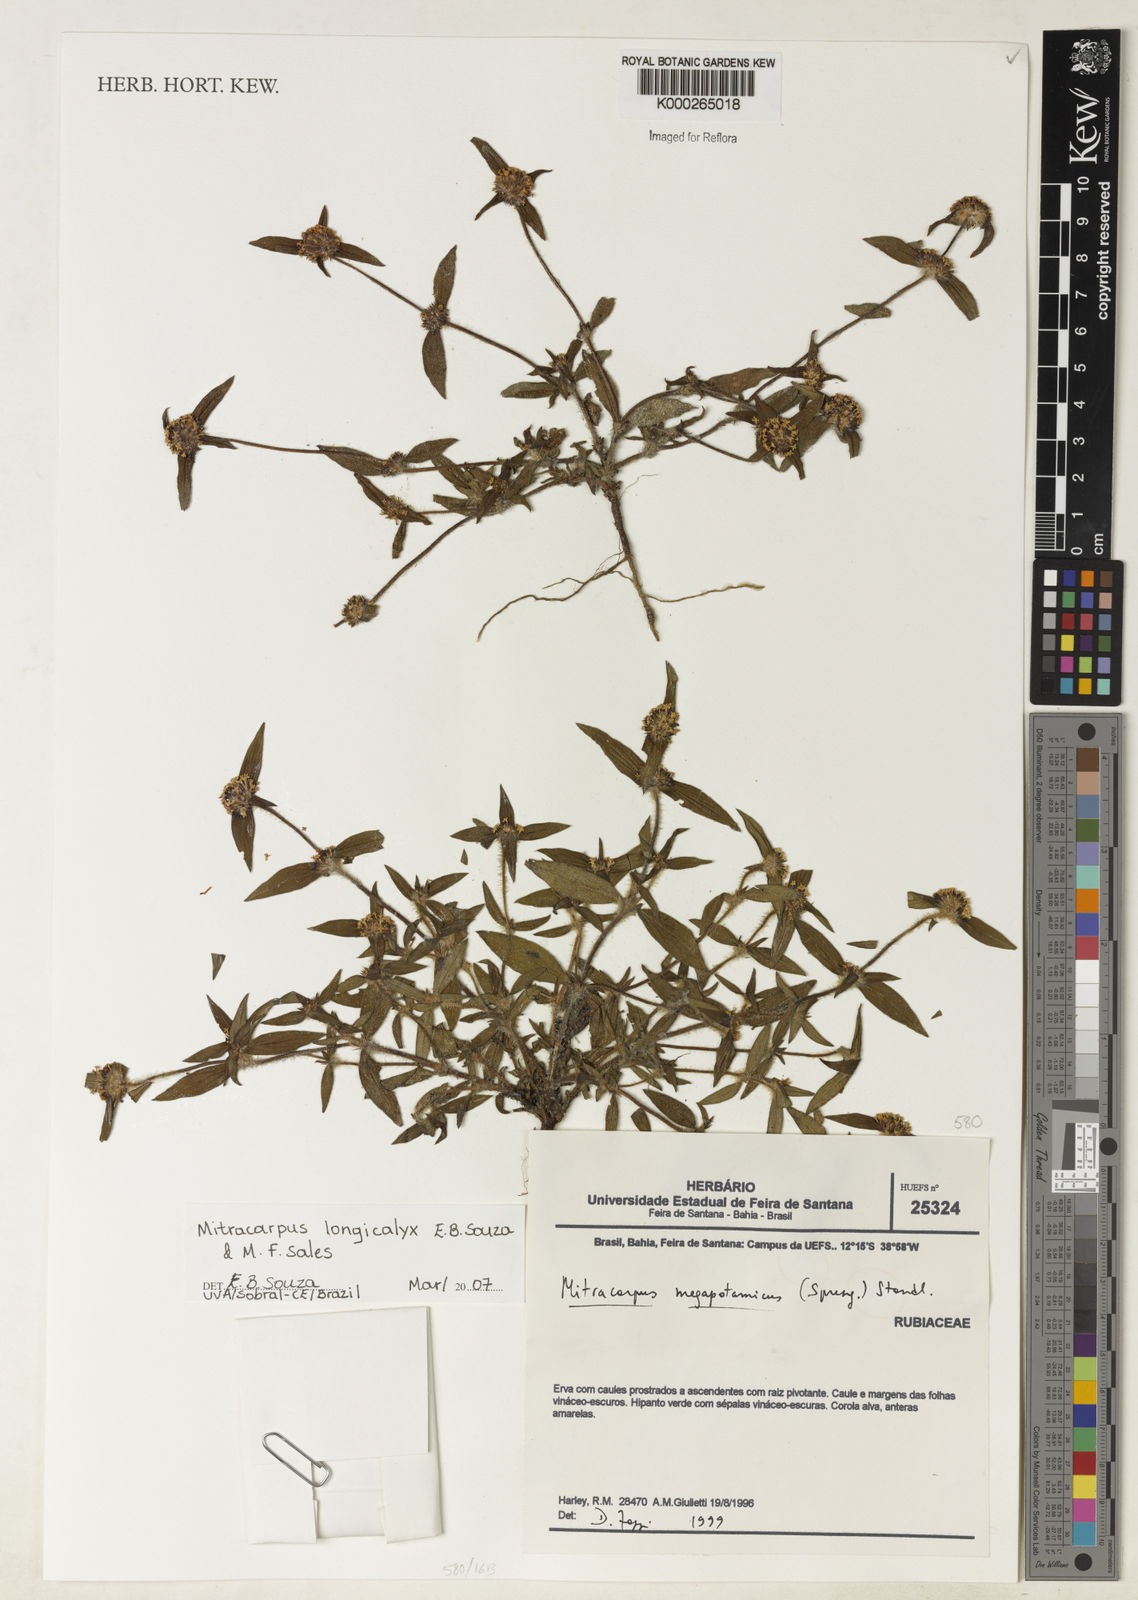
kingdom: Plantae
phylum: Tracheophyta
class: Magnoliopsida
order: Gentianales
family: Rubiaceae
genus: Mitracarpus
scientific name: Mitracarpus longicalyx
